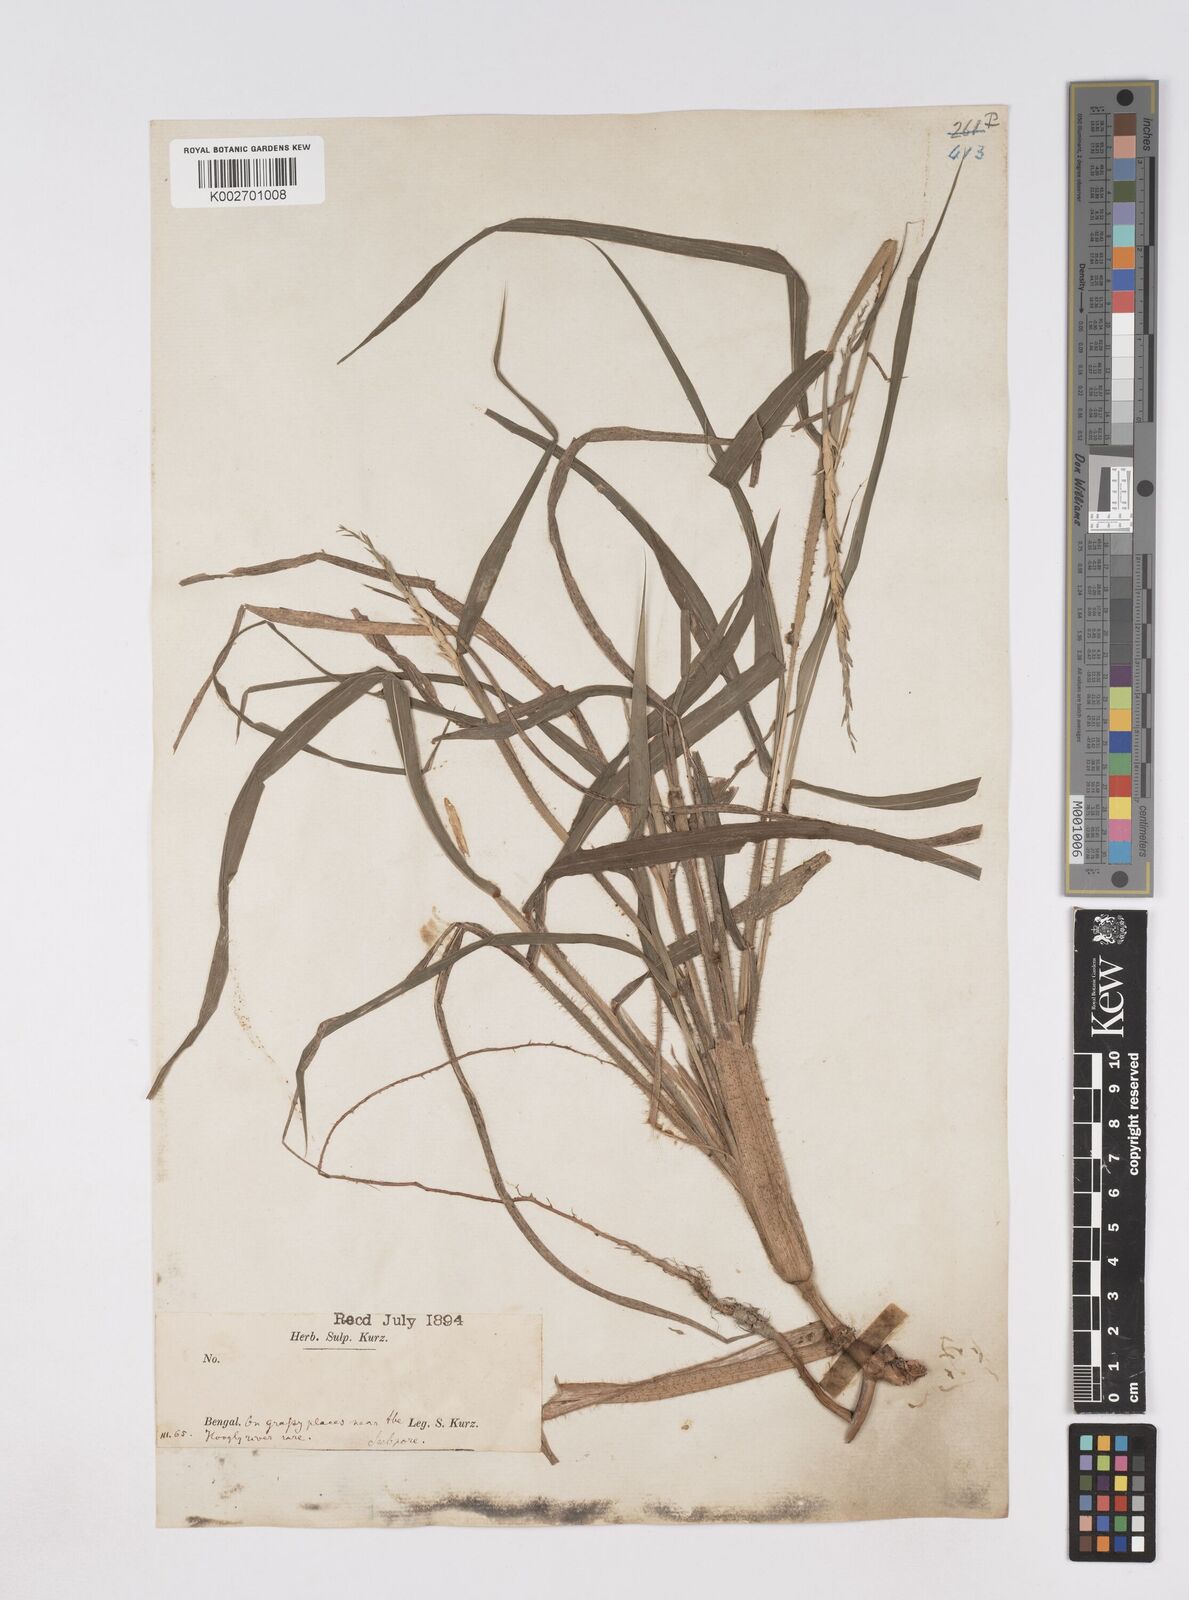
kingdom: Plantae
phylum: Tracheophyta
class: Liliopsida
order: Poales
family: Poaceae
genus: Ophiuros
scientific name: Ophiuros exaltatus
